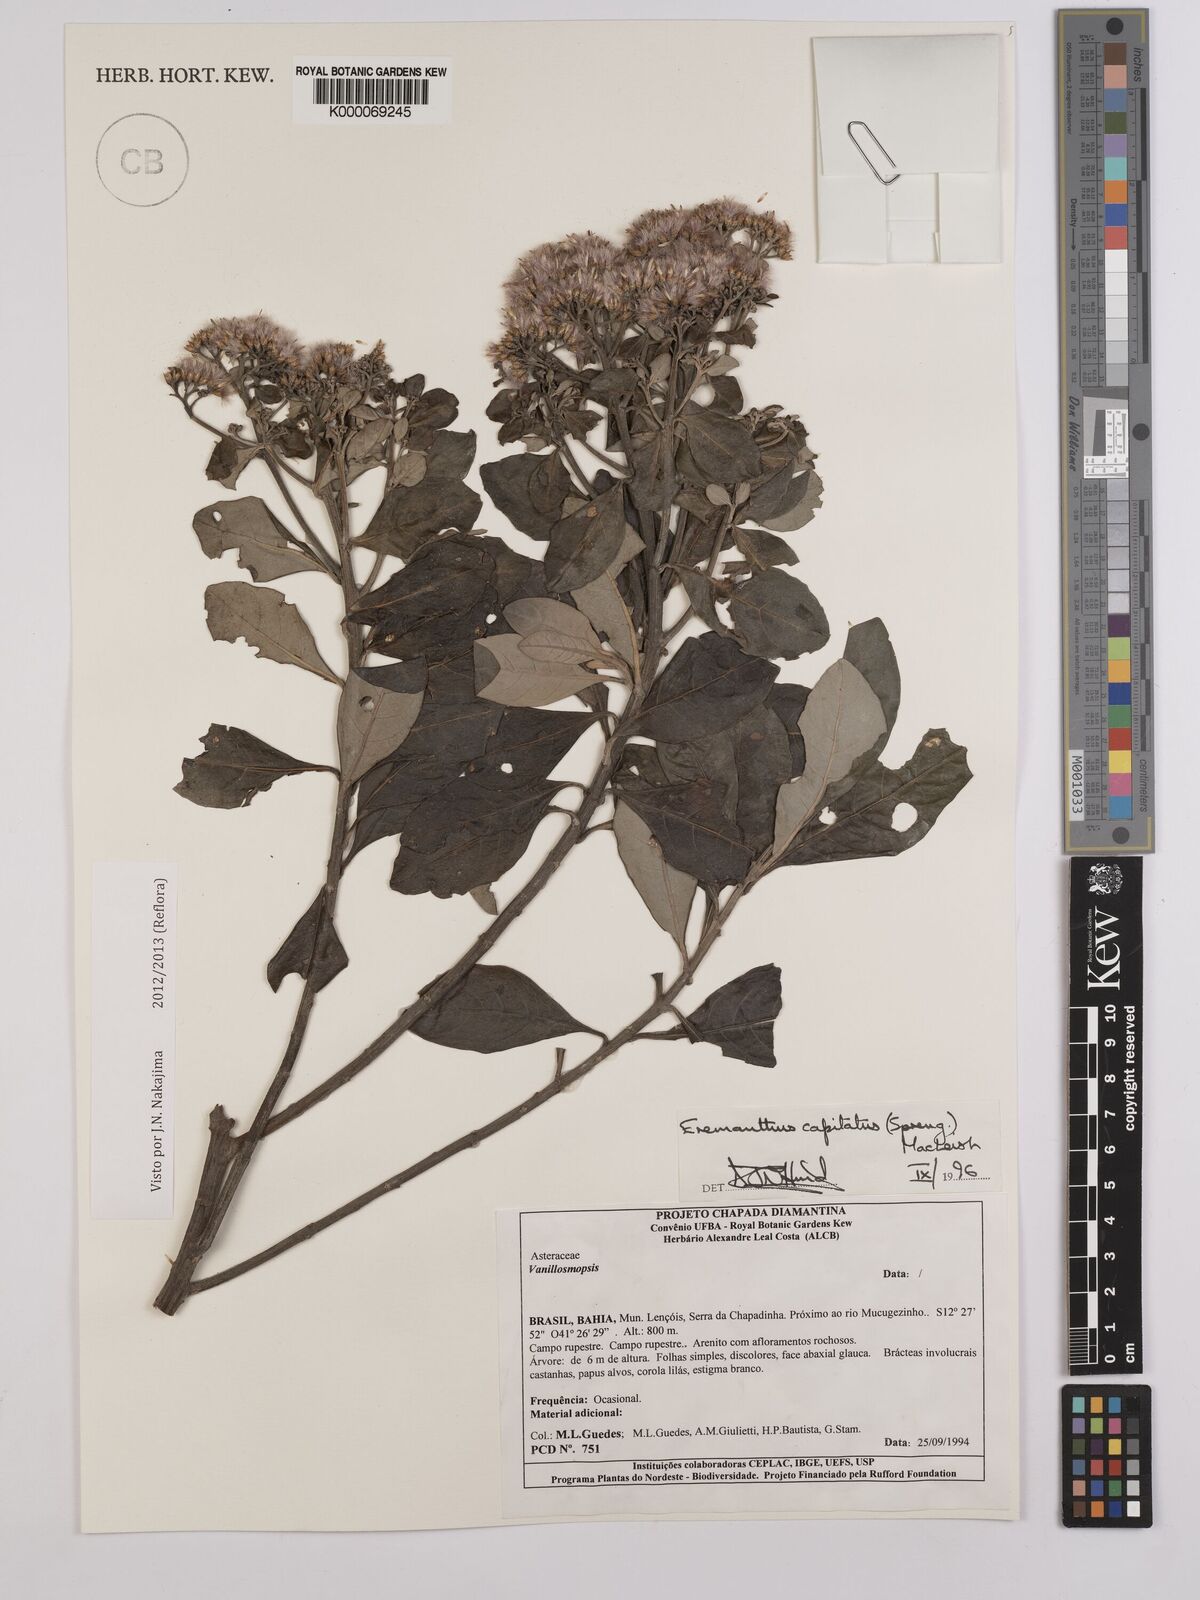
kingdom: Plantae
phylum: Tracheophyta
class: Magnoliopsida
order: Asterales
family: Asteraceae
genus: Eremanthus
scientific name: Eremanthus capitatus
